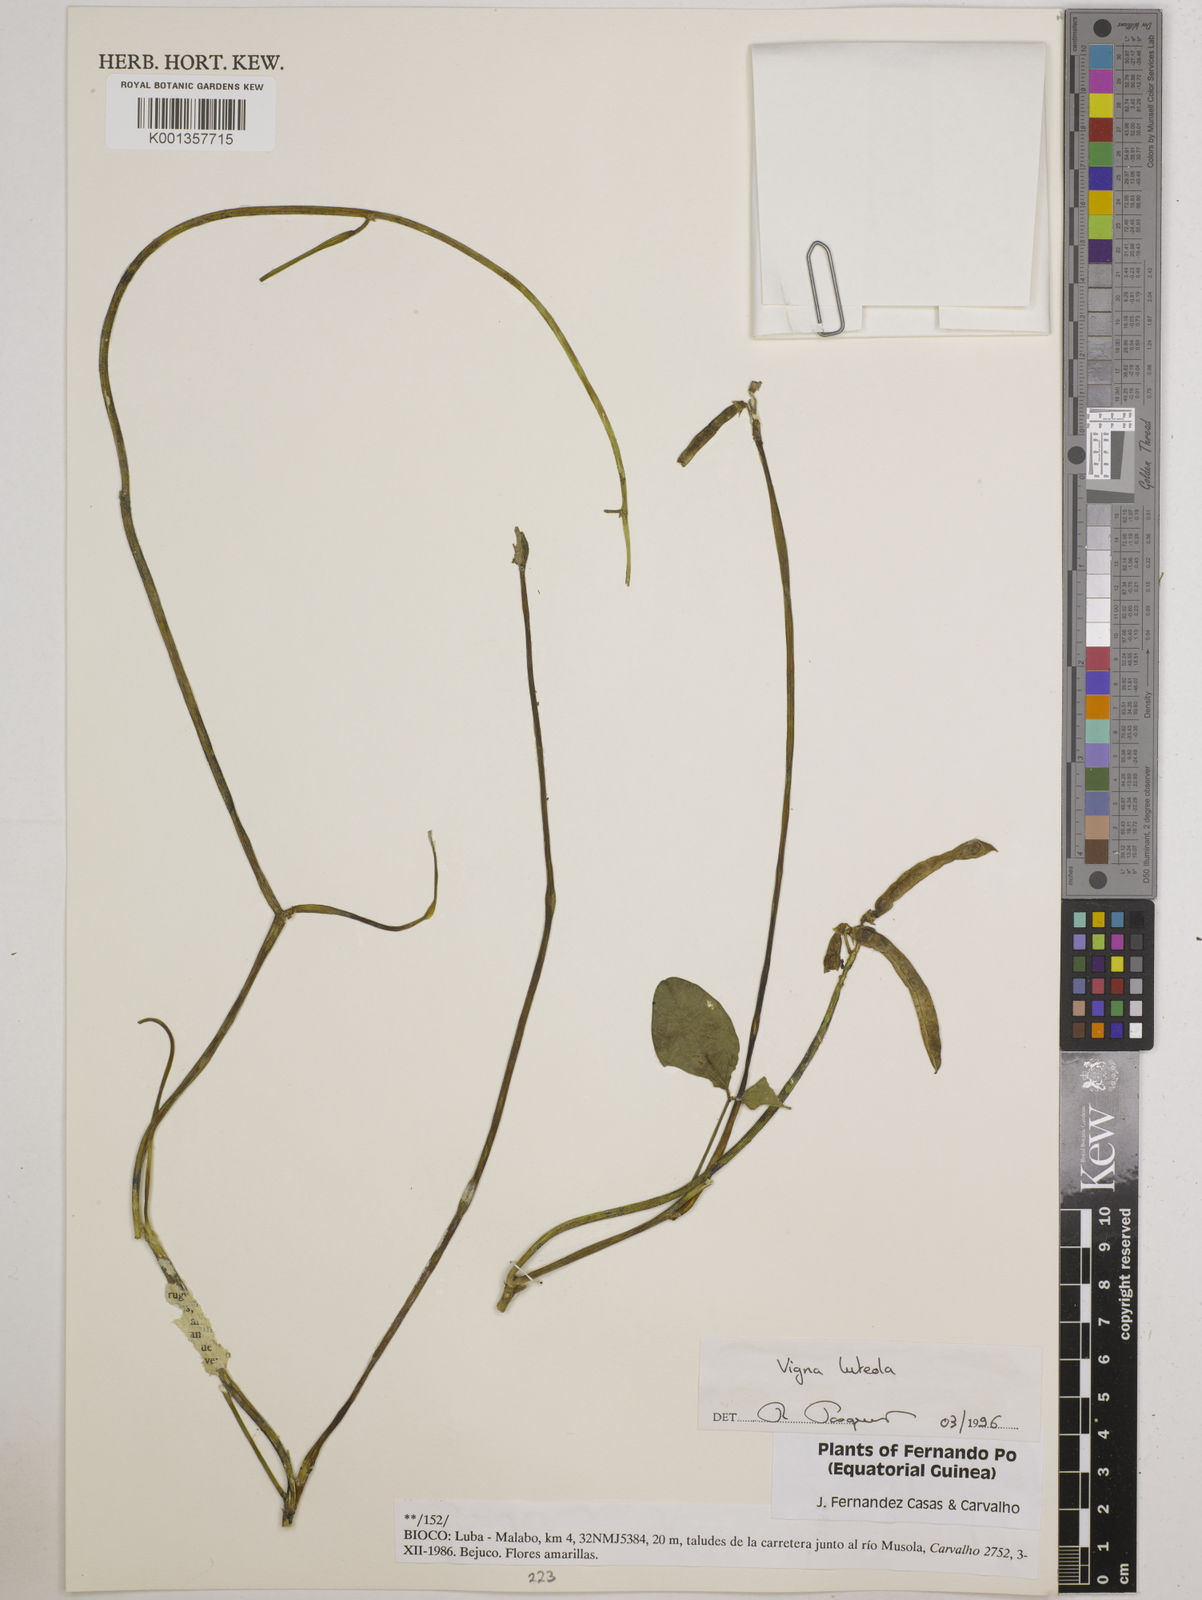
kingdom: Plantae
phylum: Tracheophyta
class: Magnoliopsida
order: Fabales
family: Fabaceae
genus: Vigna
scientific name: Vigna luteola
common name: Hairypod cowpea
